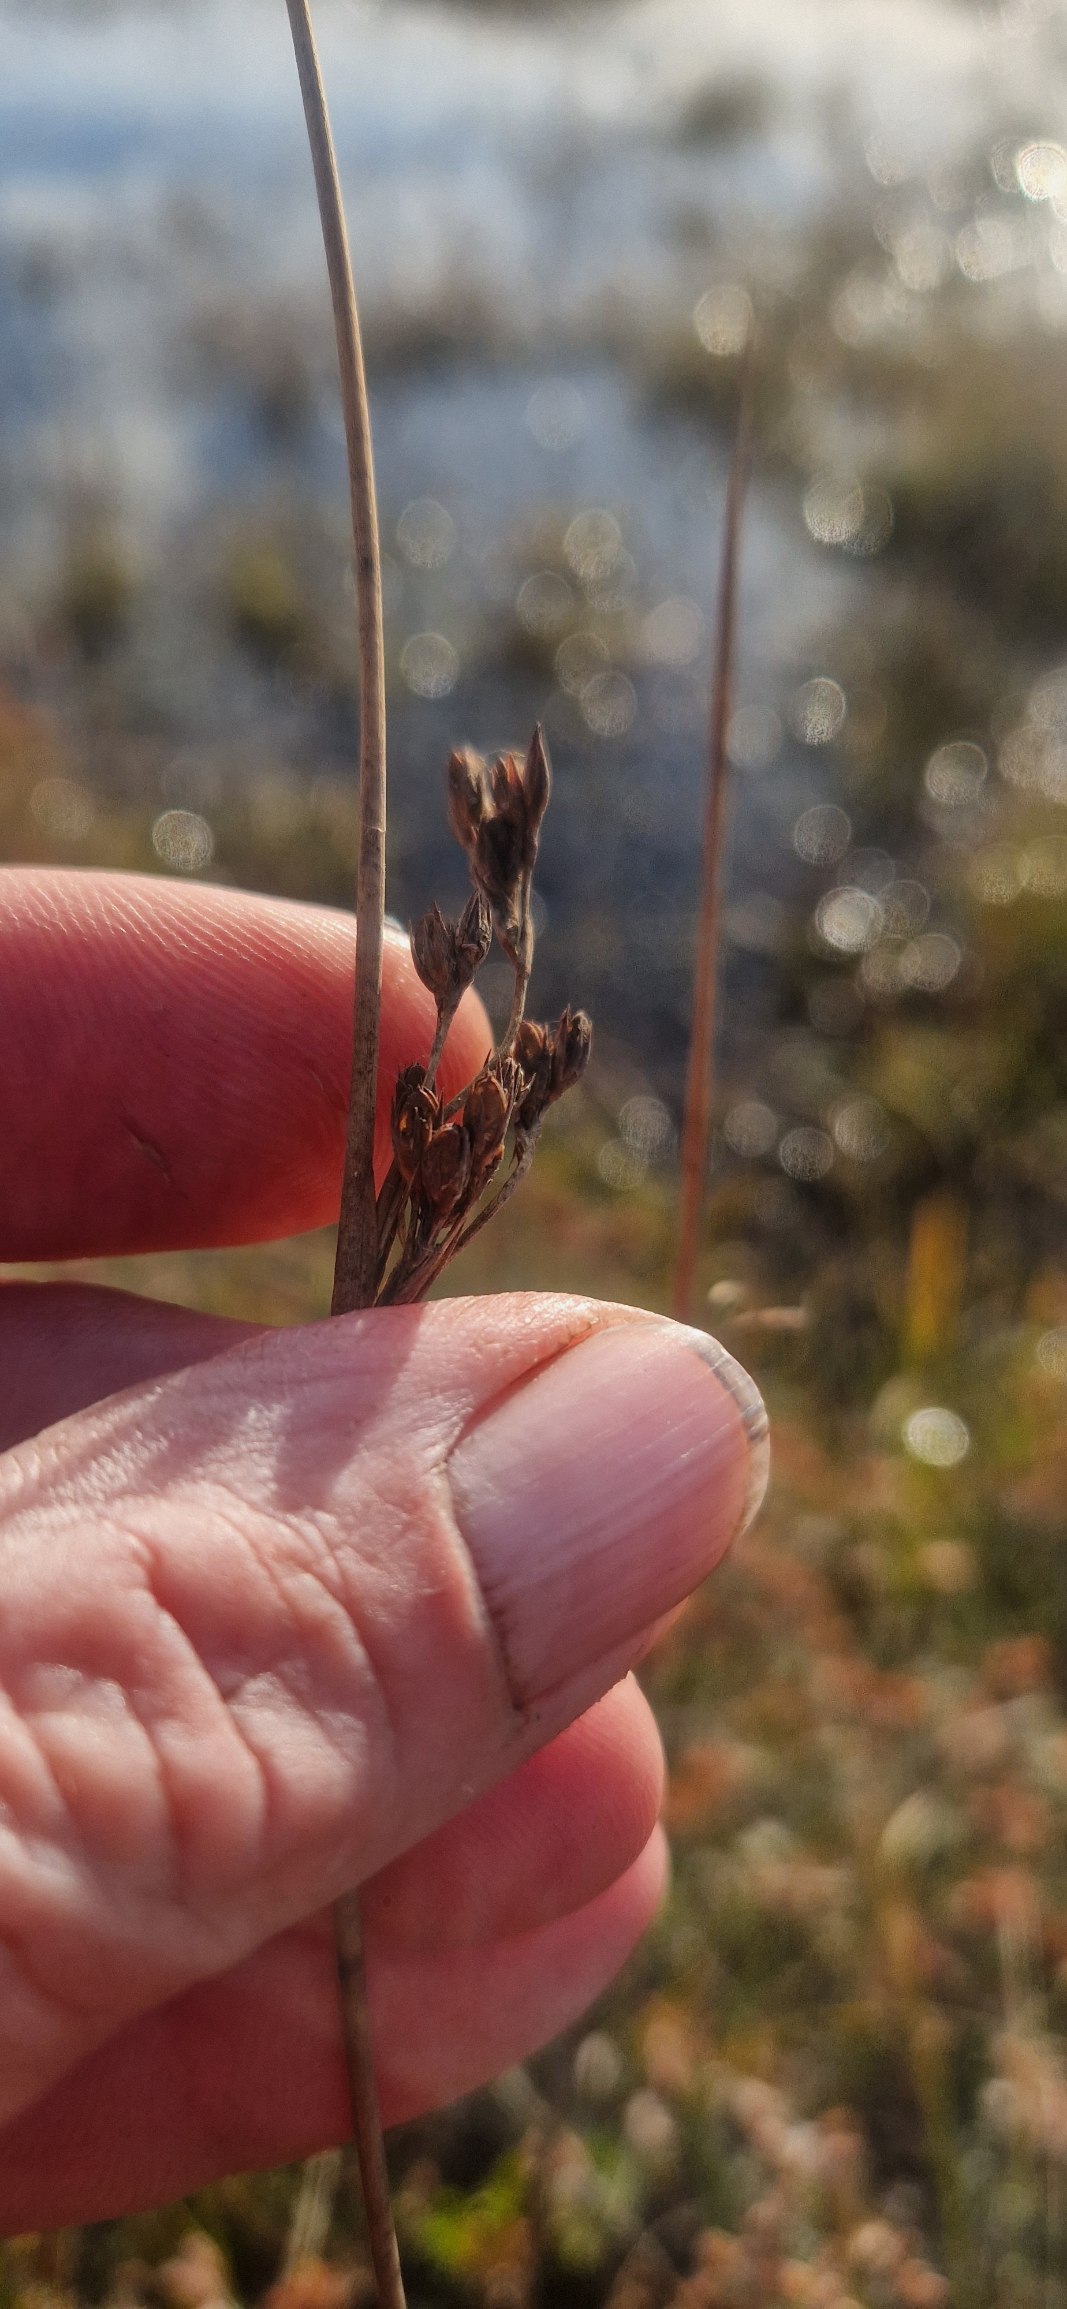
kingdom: Plantae
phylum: Tracheophyta
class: Liliopsida
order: Poales
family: Juncaceae
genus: Juncus
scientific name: Juncus balticus
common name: Klit-siv
